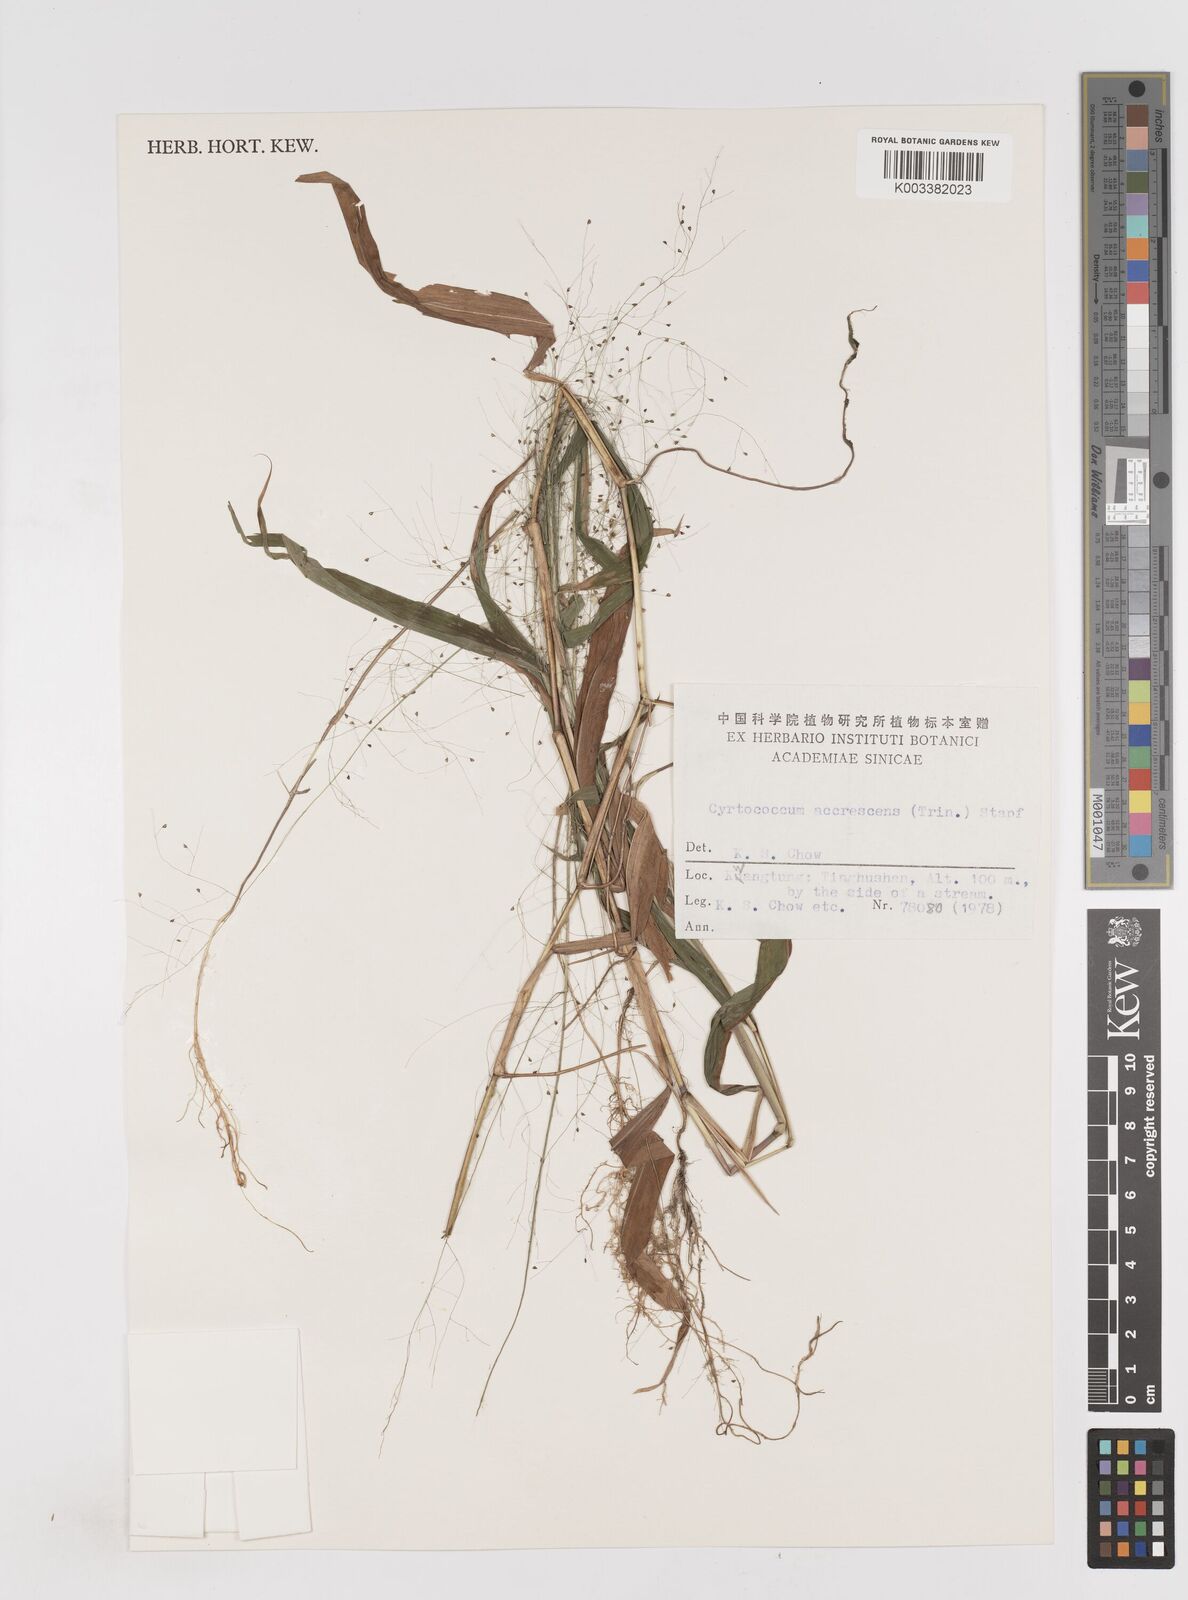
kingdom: Plantae
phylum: Tracheophyta
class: Liliopsida
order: Poales
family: Poaceae
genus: Cyrtococcum
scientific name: Cyrtococcum accrescens
